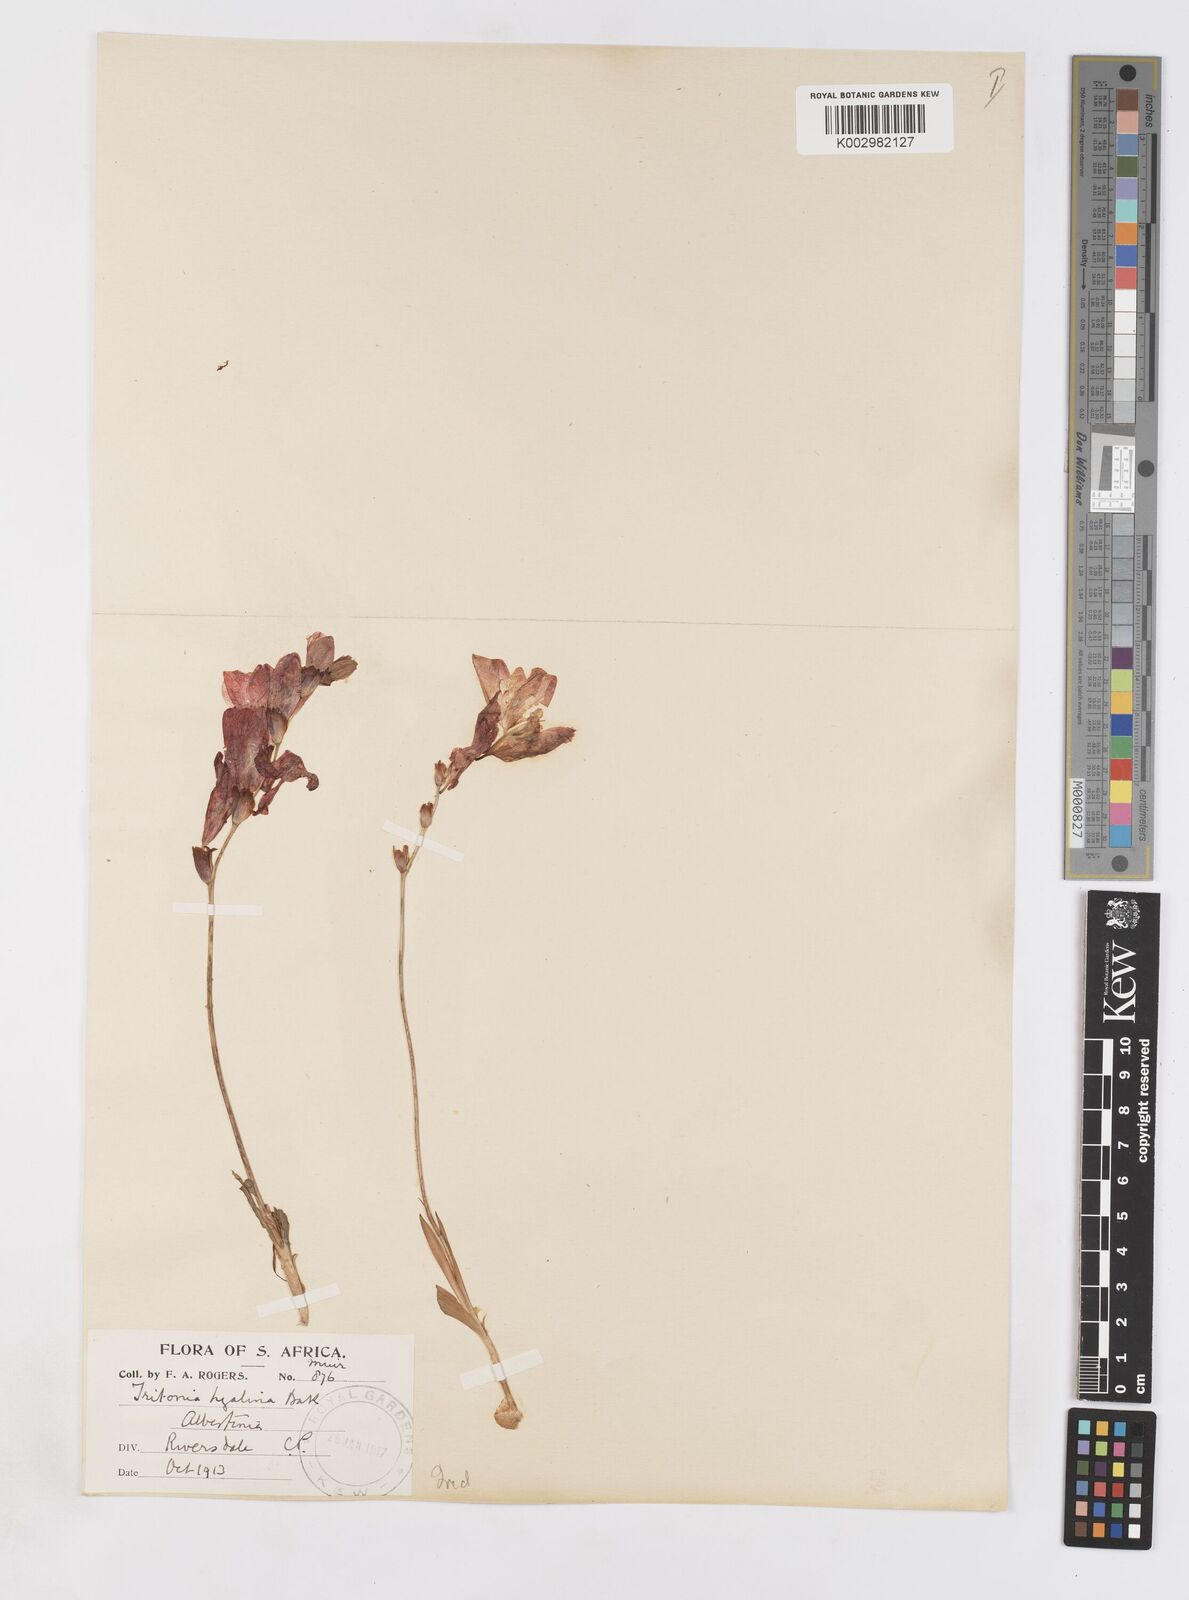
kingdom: Plantae
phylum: Tracheophyta
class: Liliopsida
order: Asparagales
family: Iridaceae
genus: Tritonia
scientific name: Tritonia crocata
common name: Flame-freesia
